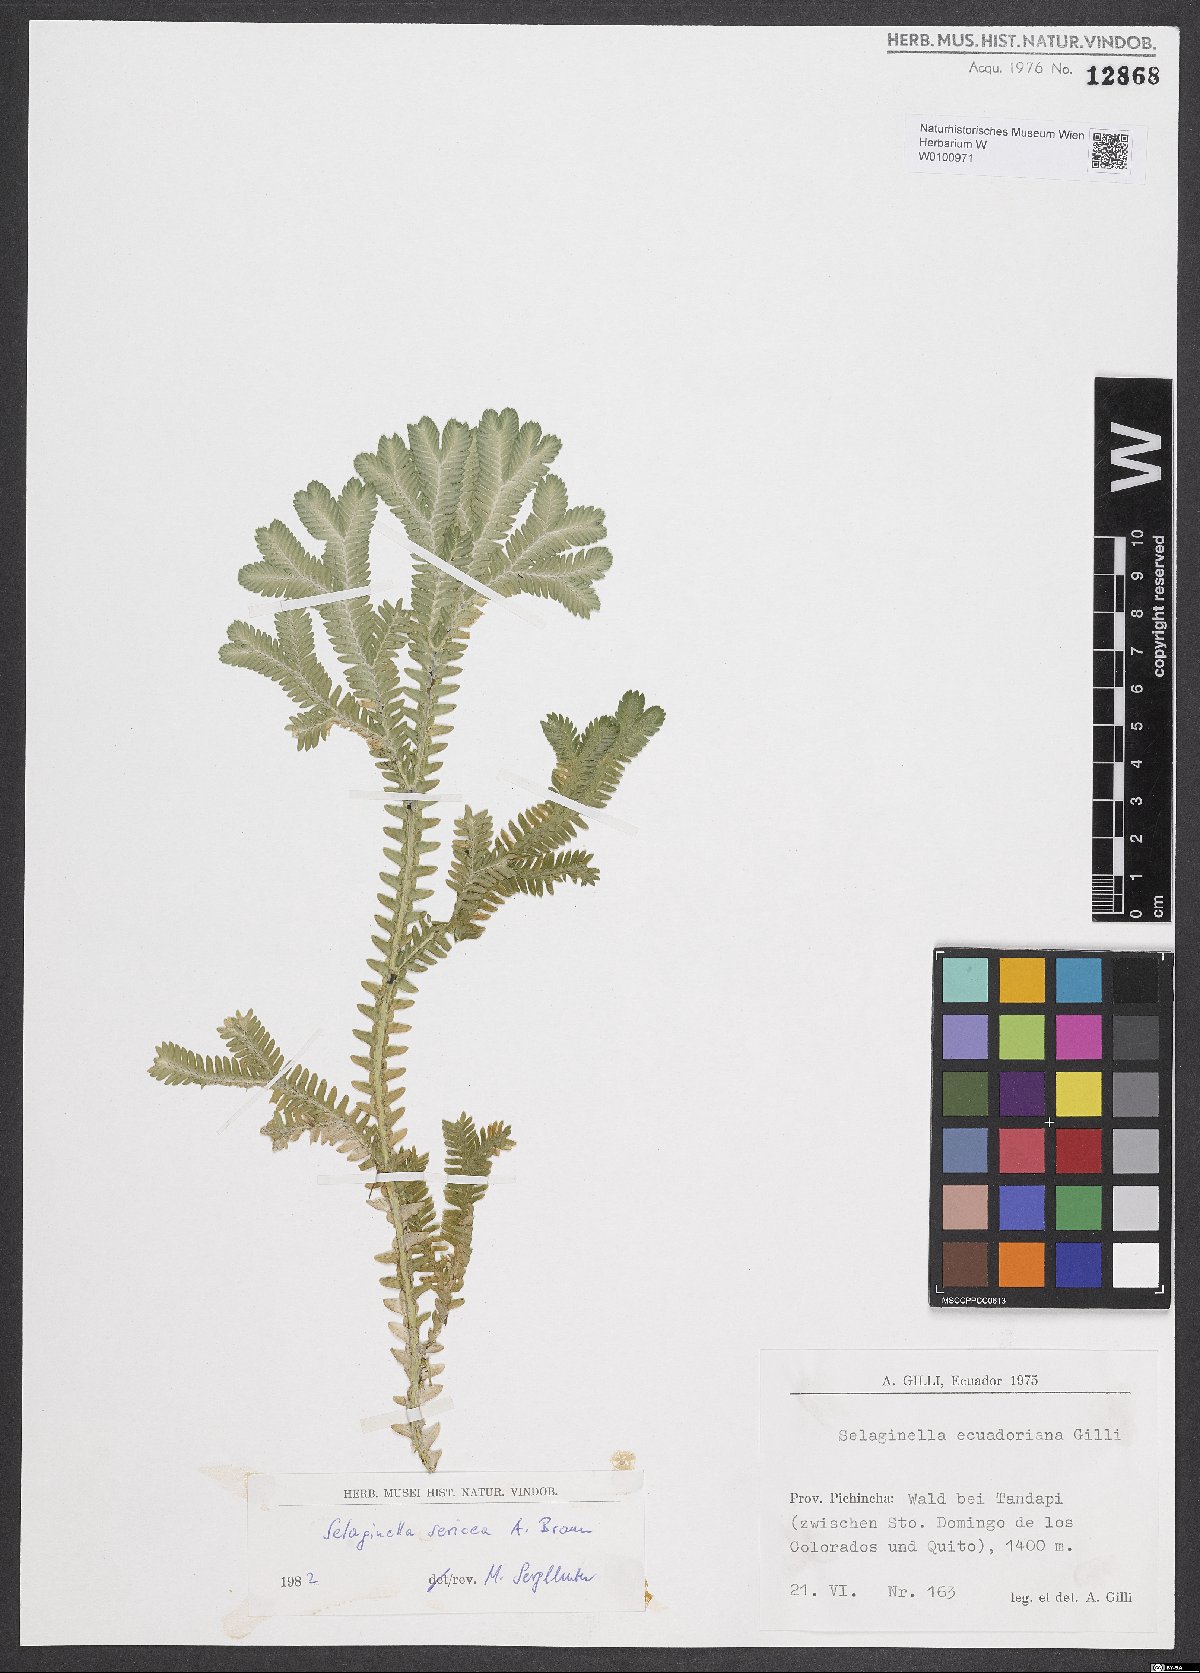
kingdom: Plantae
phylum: Tracheophyta
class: Lycopodiopsida
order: Selaginellales
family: Selaginellaceae
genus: Selaginella
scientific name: Selaginella ecuadoriana
